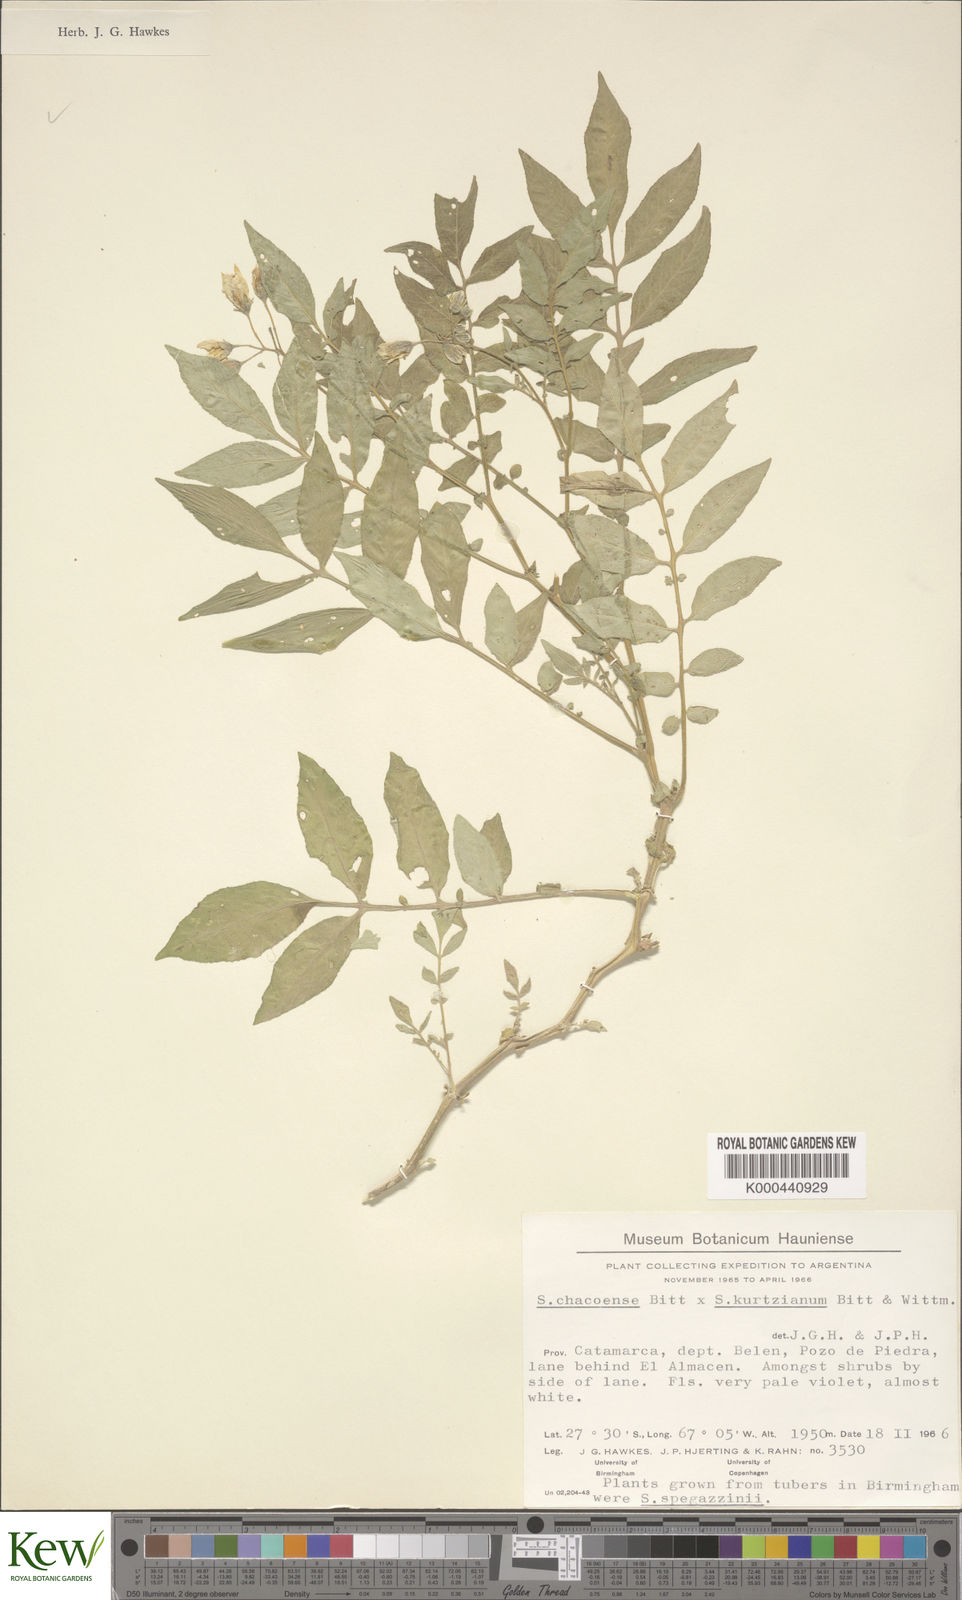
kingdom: Plantae
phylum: Tracheophyta
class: Magnoliopsida
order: Solanales
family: Solanaceae
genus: Solanum
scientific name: Solanum chacoense
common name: Chaco potato
